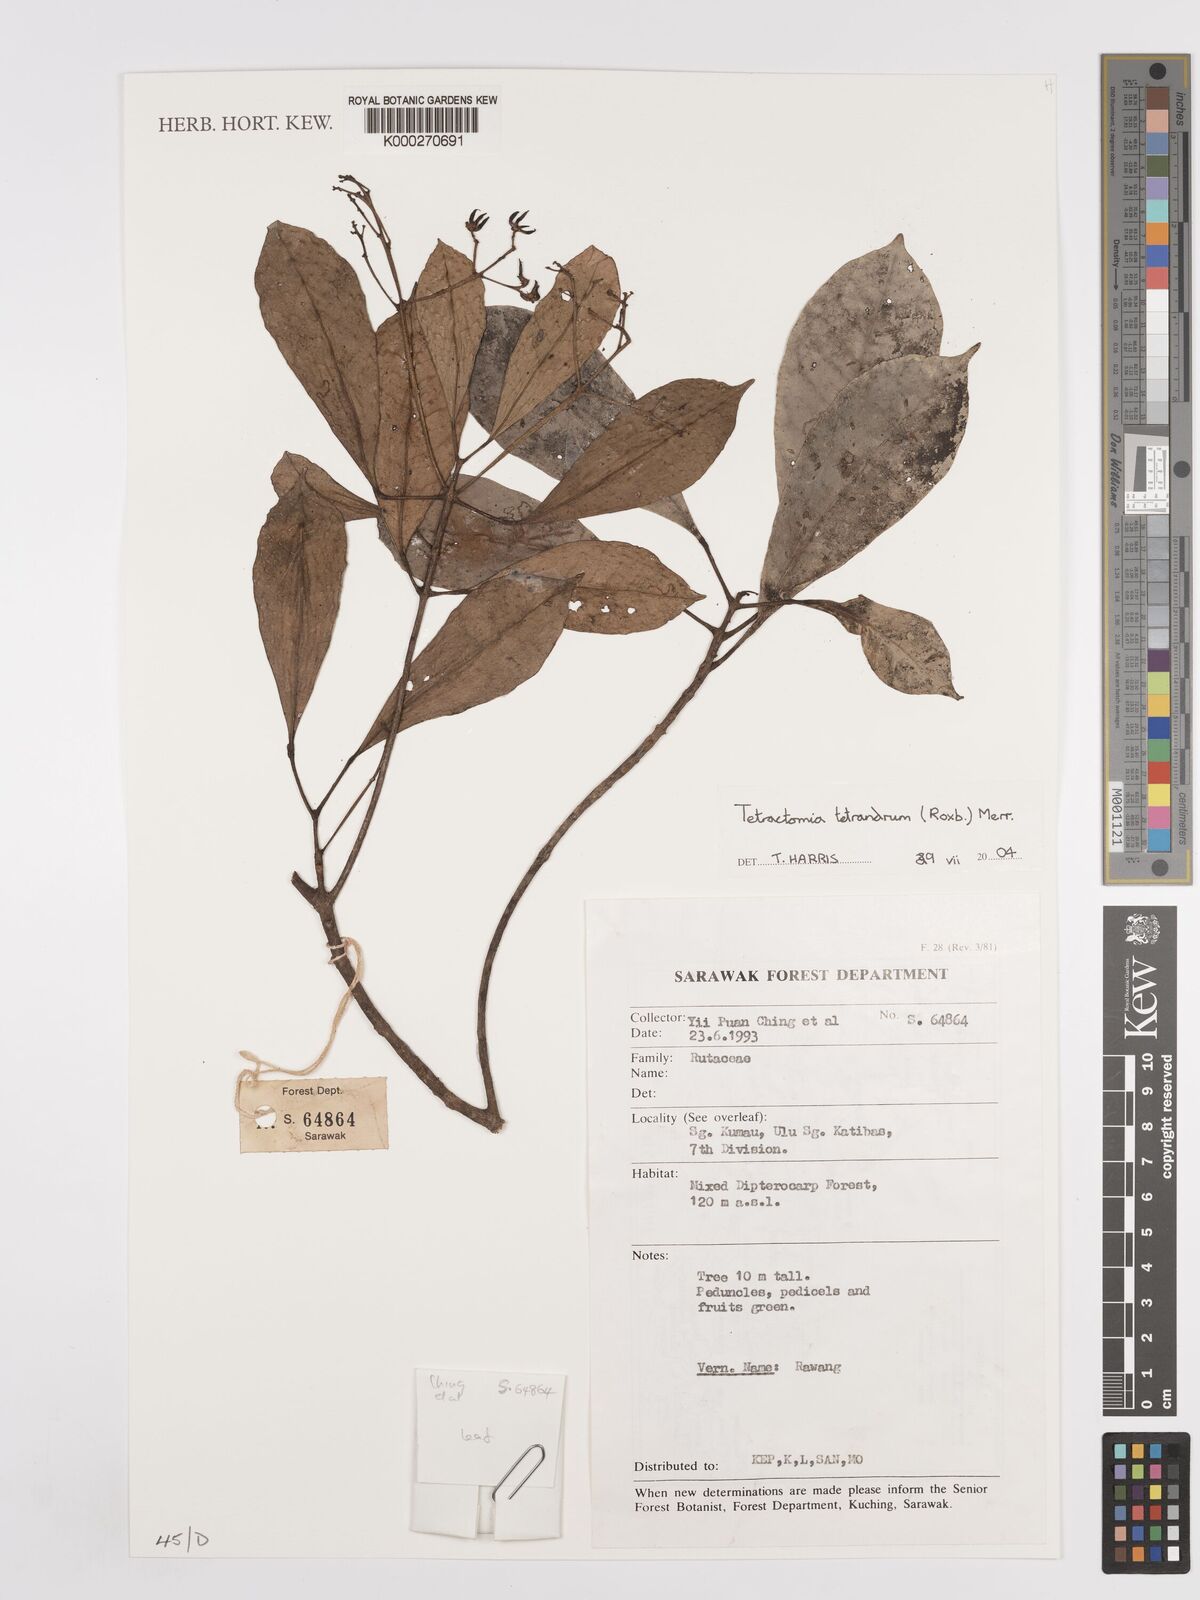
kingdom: Plantae
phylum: Tracheophyta
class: Magnoliopsida
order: Sapindales
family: Rutaceae
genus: Tetractomia
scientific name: Tetractomia tetrandra
